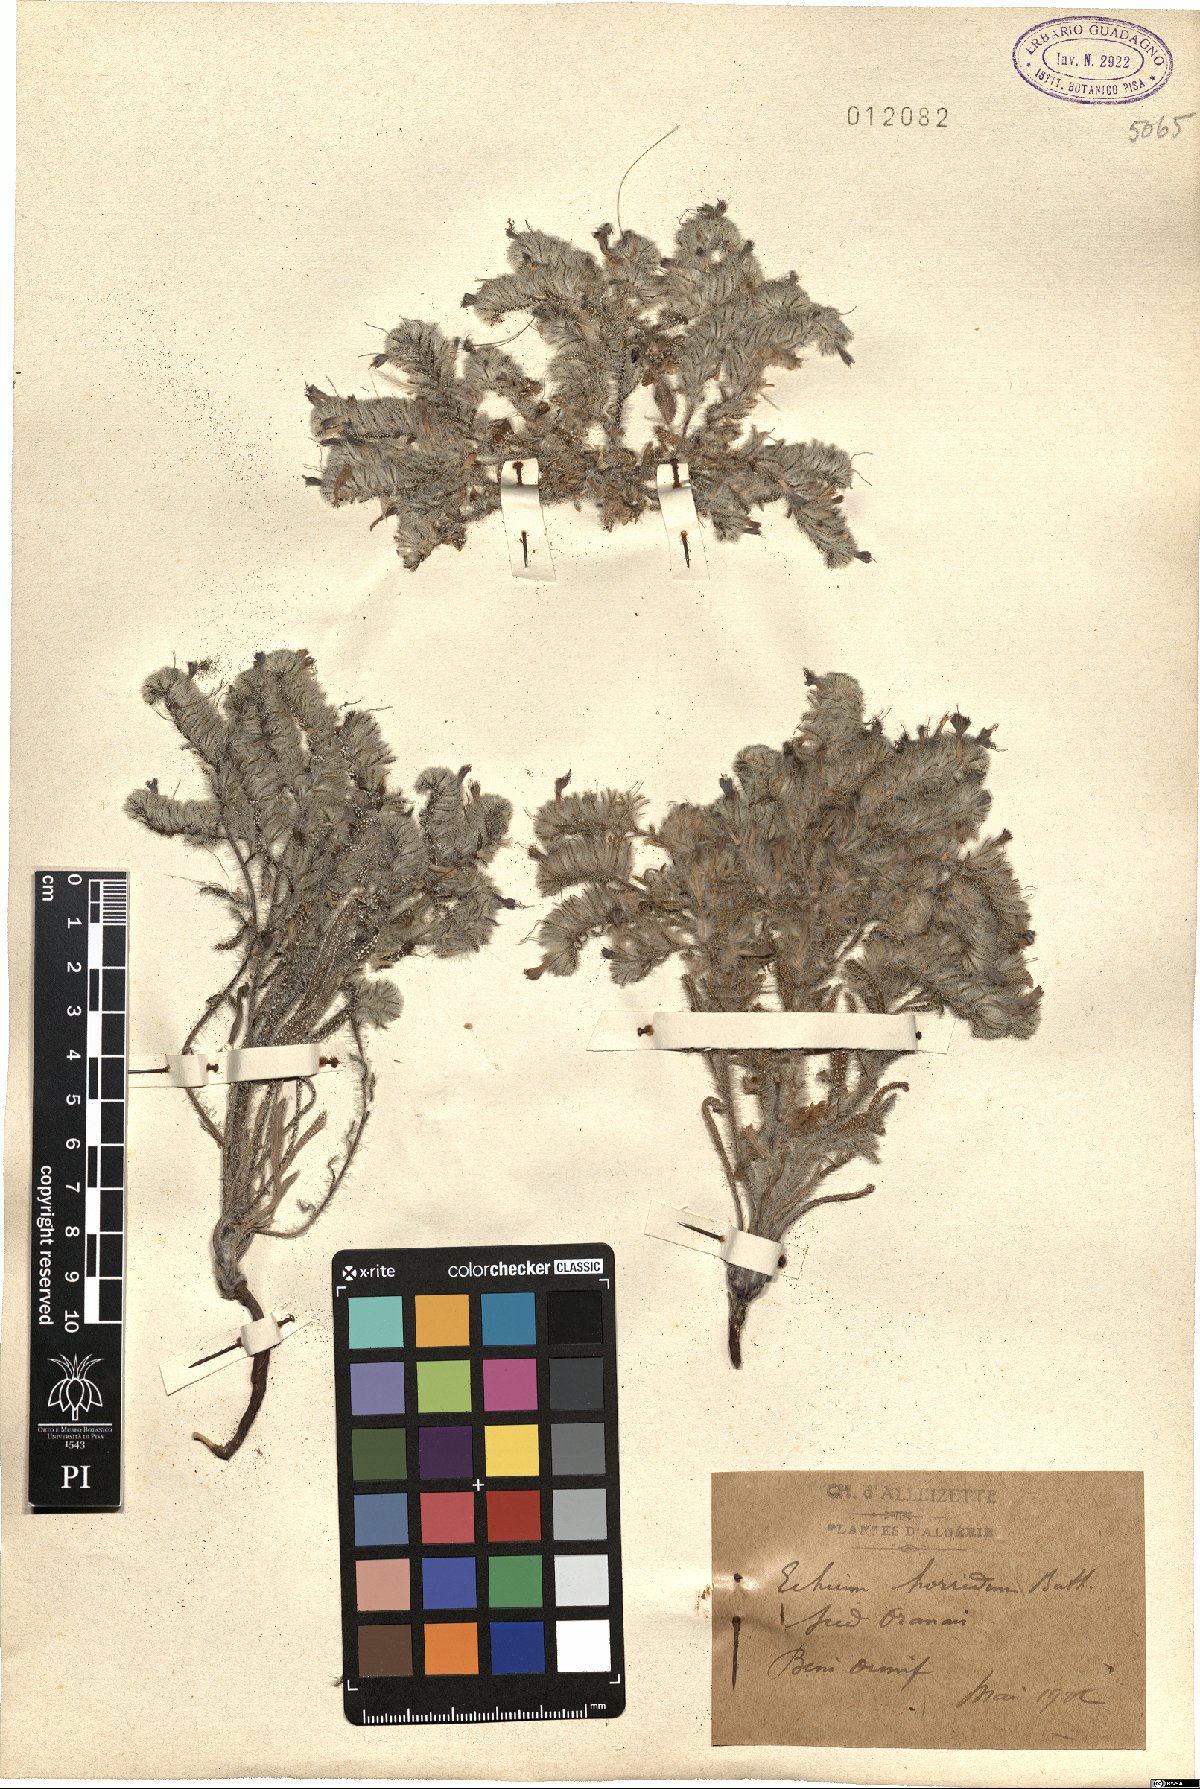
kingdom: Plantae
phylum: Tracheophyta
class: Magnoliopsida
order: Boraginales
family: Boraginaceae
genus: Echium
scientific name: Echium horridum
